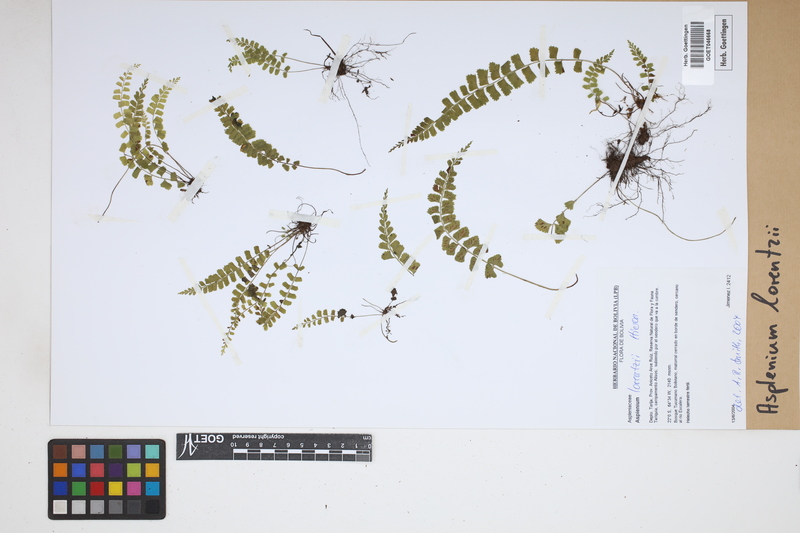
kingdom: Plantae
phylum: Tracheophyta
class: Polypodiopsida
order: Polypodiales
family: Aspleniaceae
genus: Asplenium
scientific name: Asplenium lorentzii
